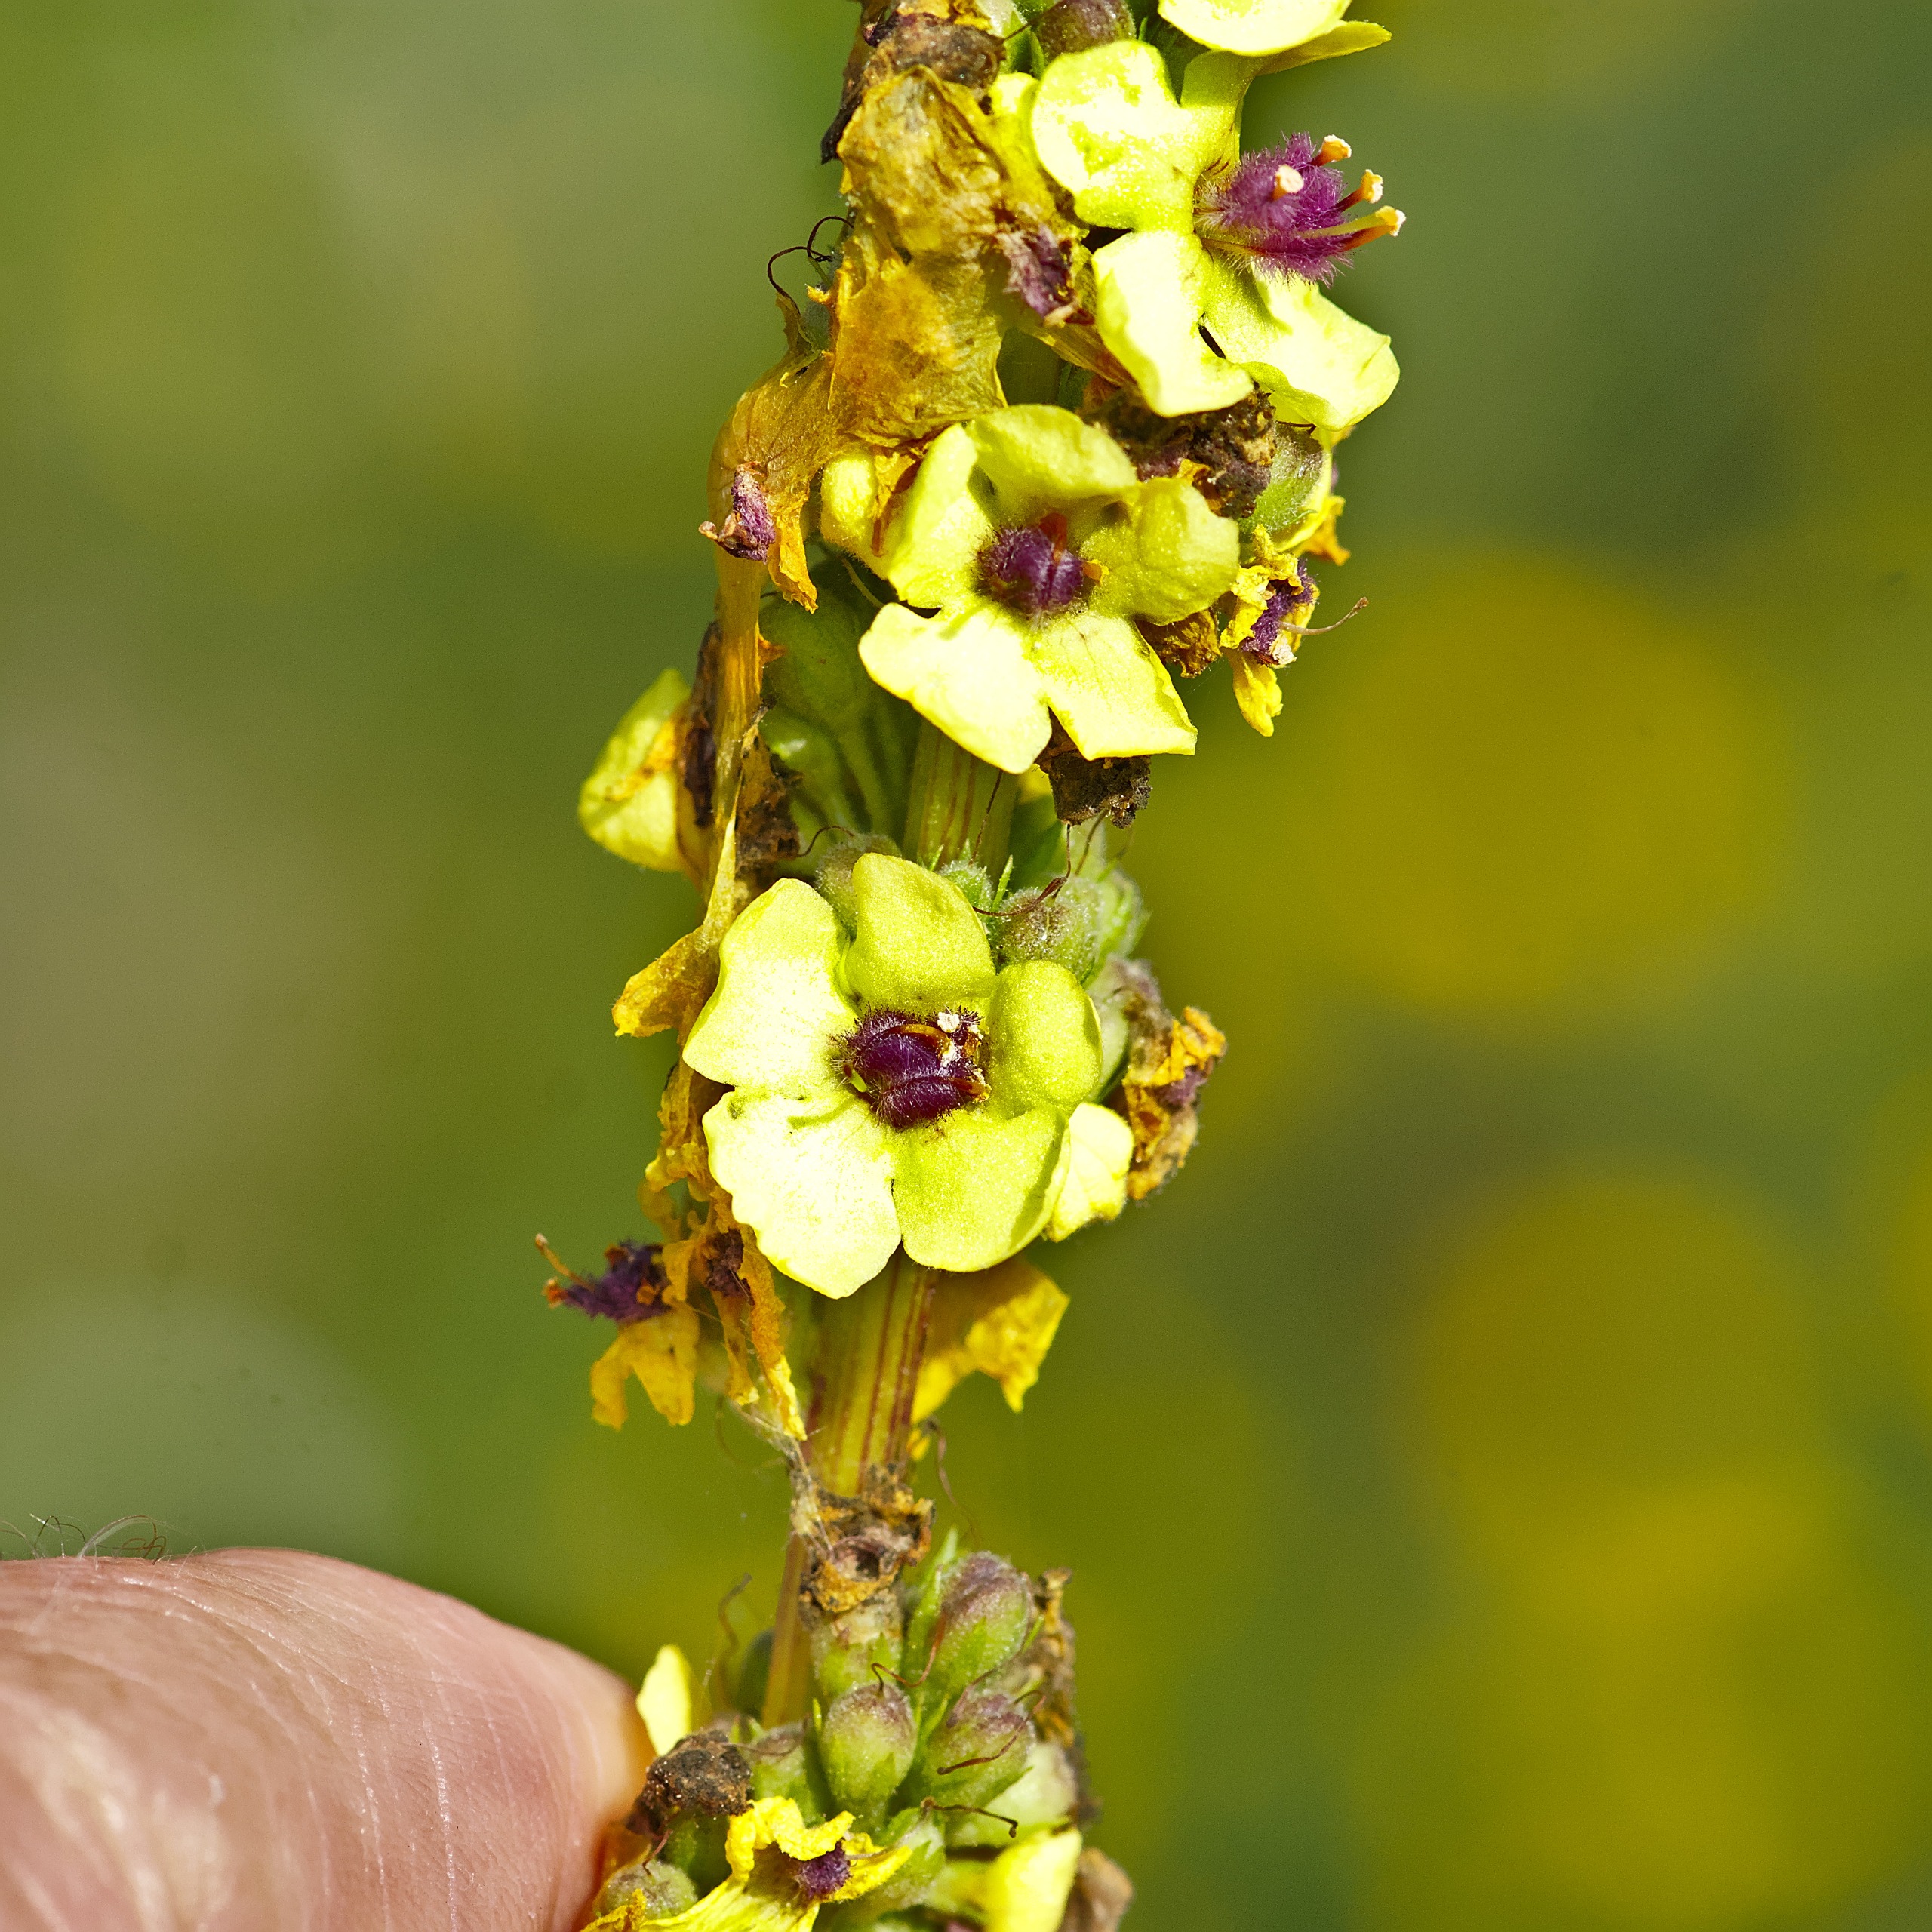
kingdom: Plantae
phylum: Tracheophyta
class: Magnoliopsida
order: Lamiales
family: Scrophulariaceae
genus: Verbascum
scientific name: Verbascum nigrum
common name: Mørk kongelys
